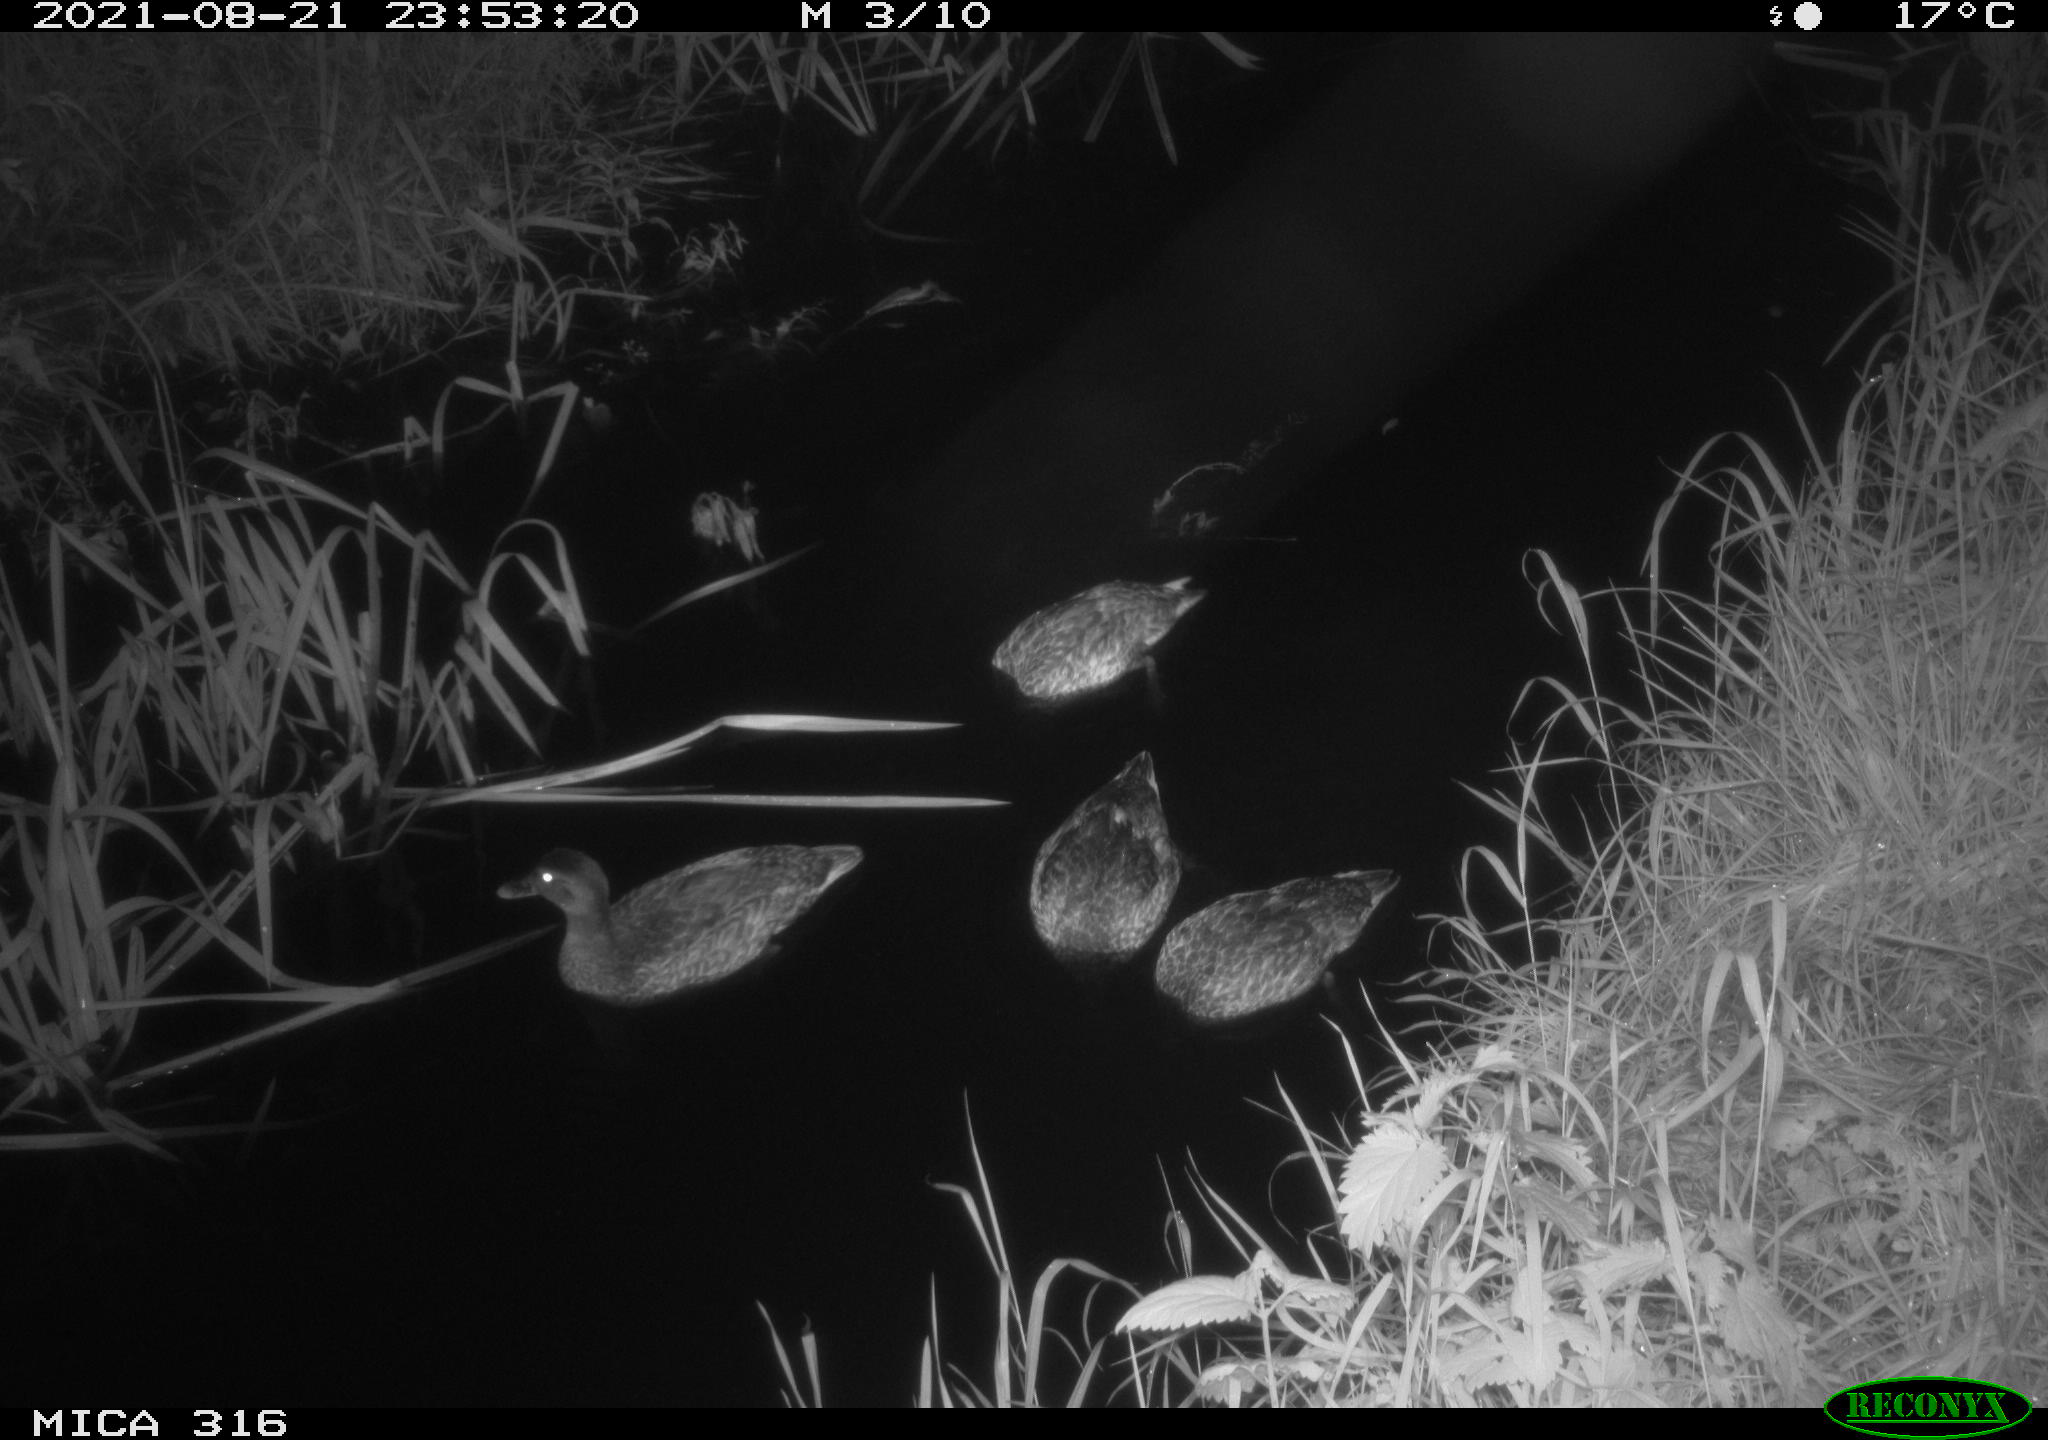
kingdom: Animalia
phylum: Chordata
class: Aves
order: Anseriformes
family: Anatidae
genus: Anas
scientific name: Anas platyrhynchos
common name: Mallard
